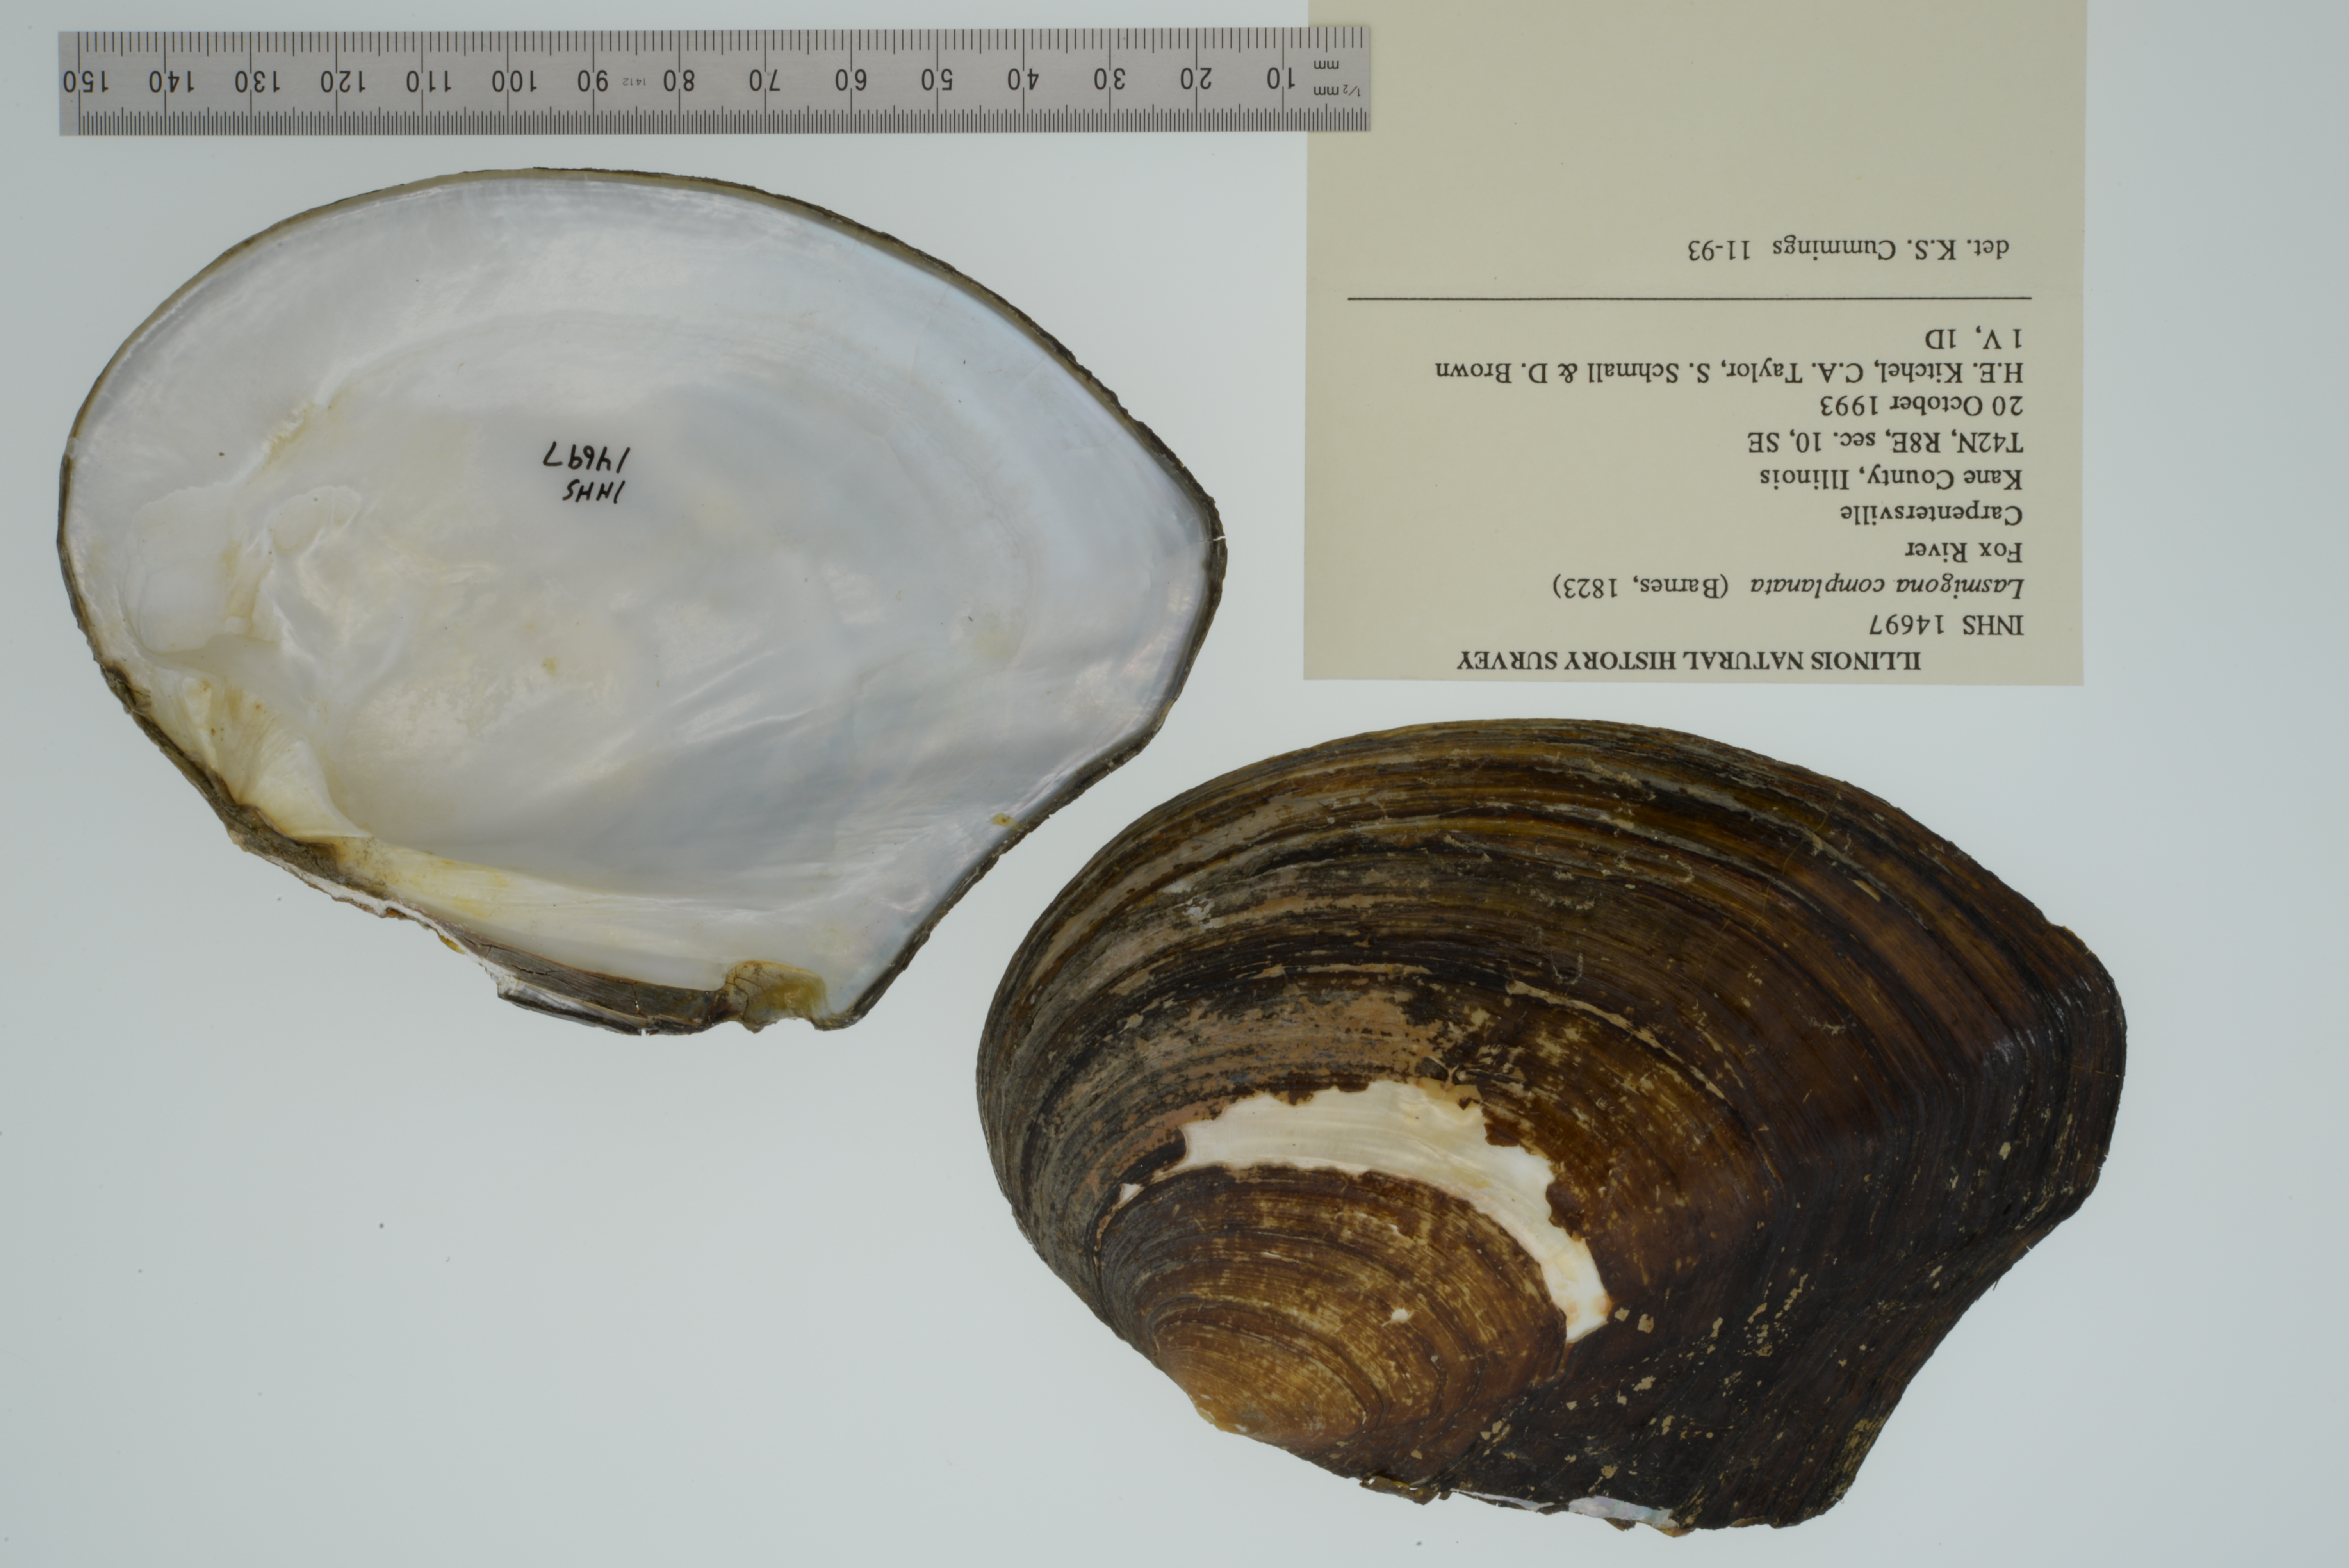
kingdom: Animalia
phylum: Mollusca
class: Bivalvia
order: Unionida
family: Unionidae
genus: Lasmigona
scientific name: Lasmigona complanata
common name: White heelsplitter
